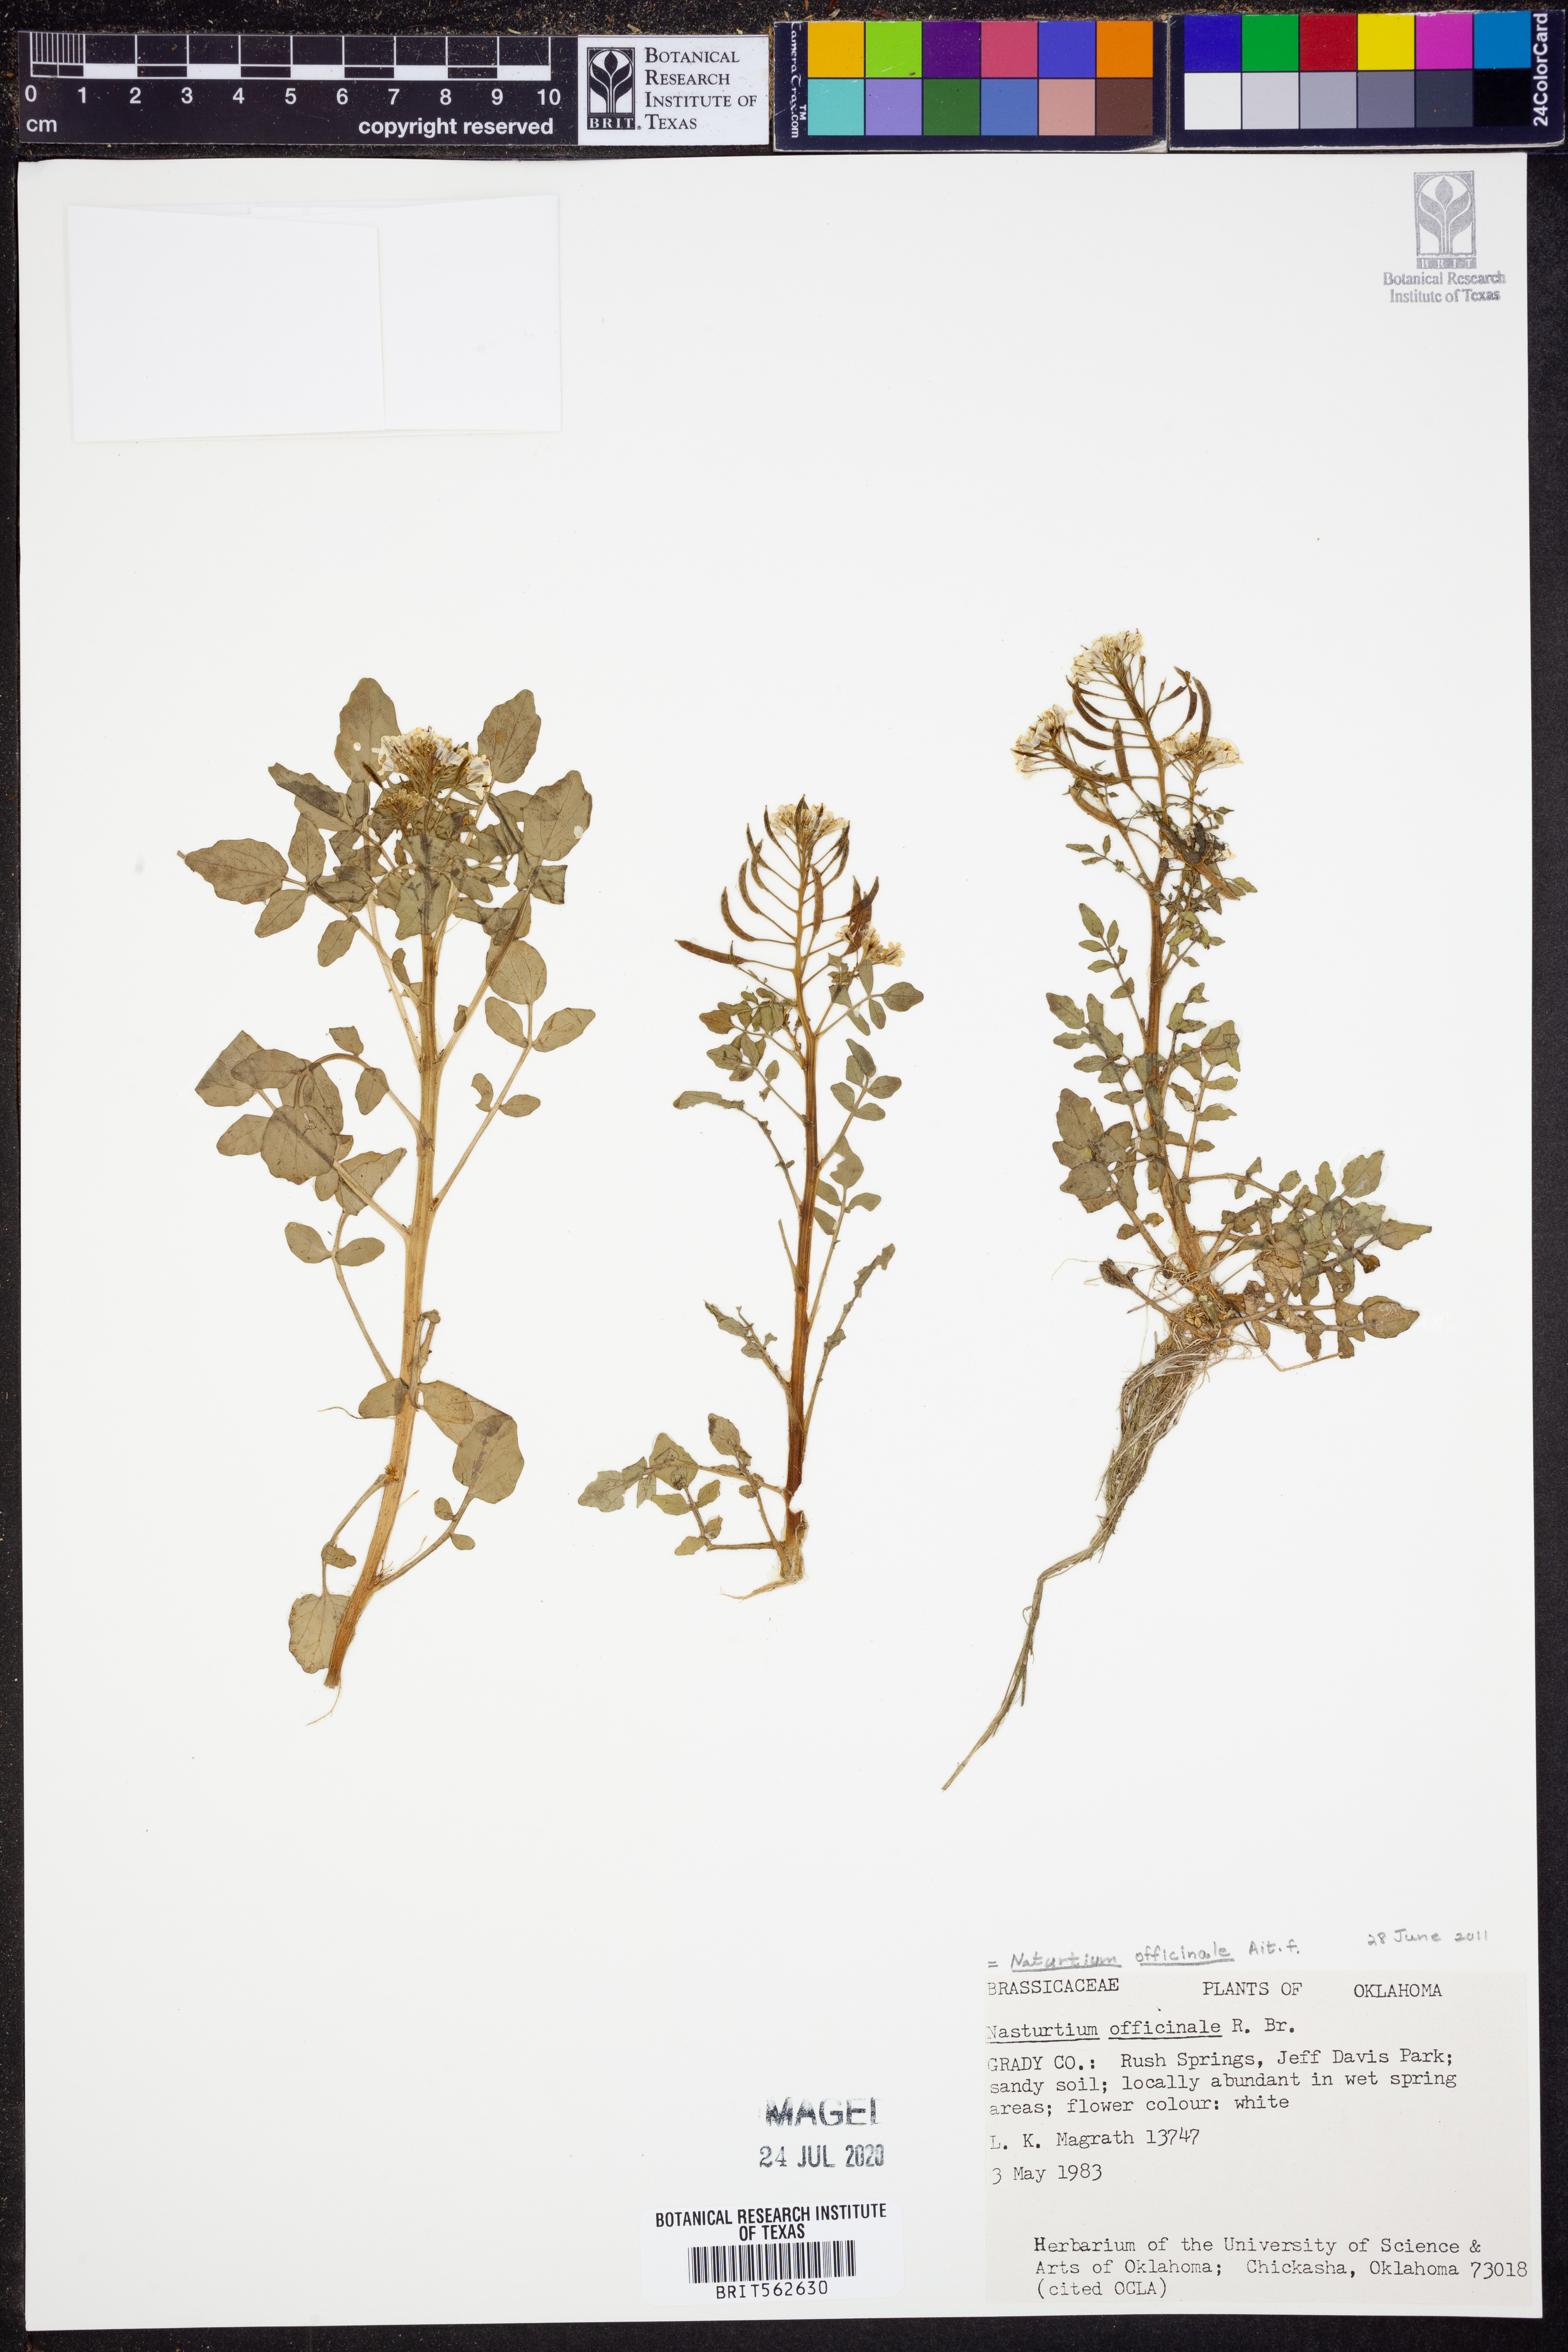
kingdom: Plantae
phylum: Tracheophyta
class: Magnoliopsida
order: Brassicales
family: Brassicaceae
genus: Nasturtium
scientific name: Nasturtium officinale
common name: Watercress
